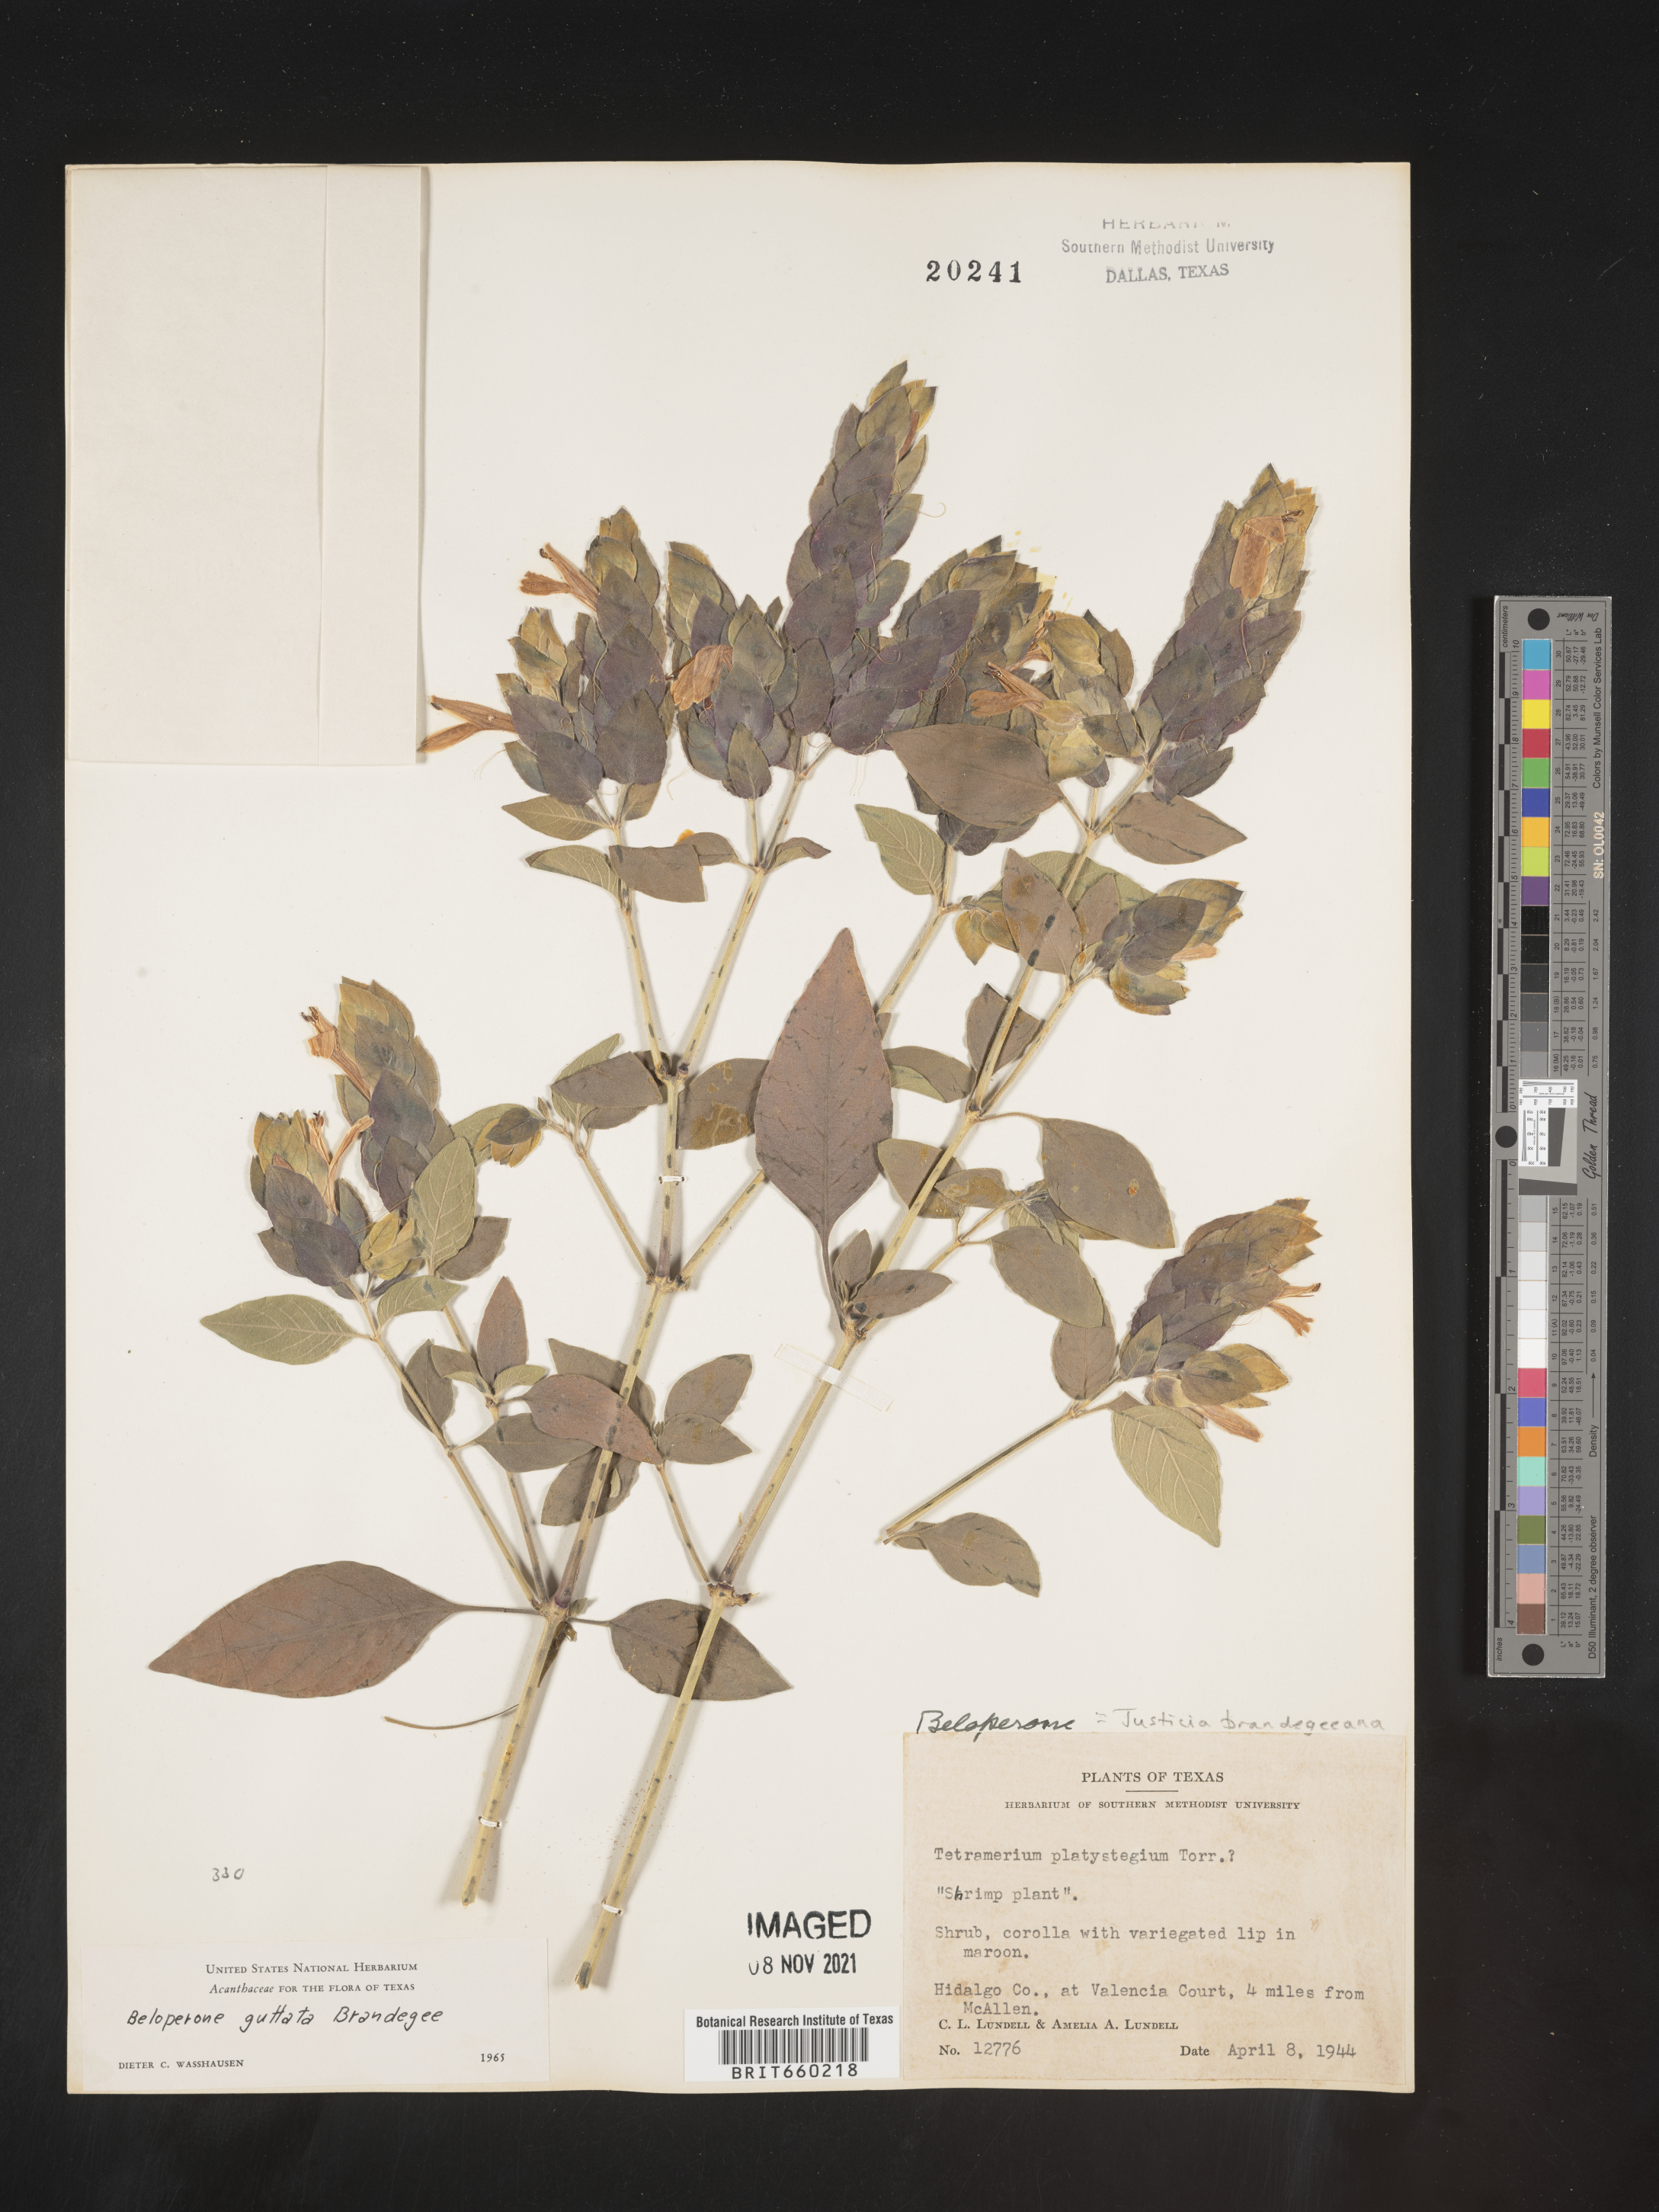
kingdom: Plantae
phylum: Tracheophyta
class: Magnoliopsida
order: Lamiales
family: Acanthaceae
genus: Justicia
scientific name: Justicia
